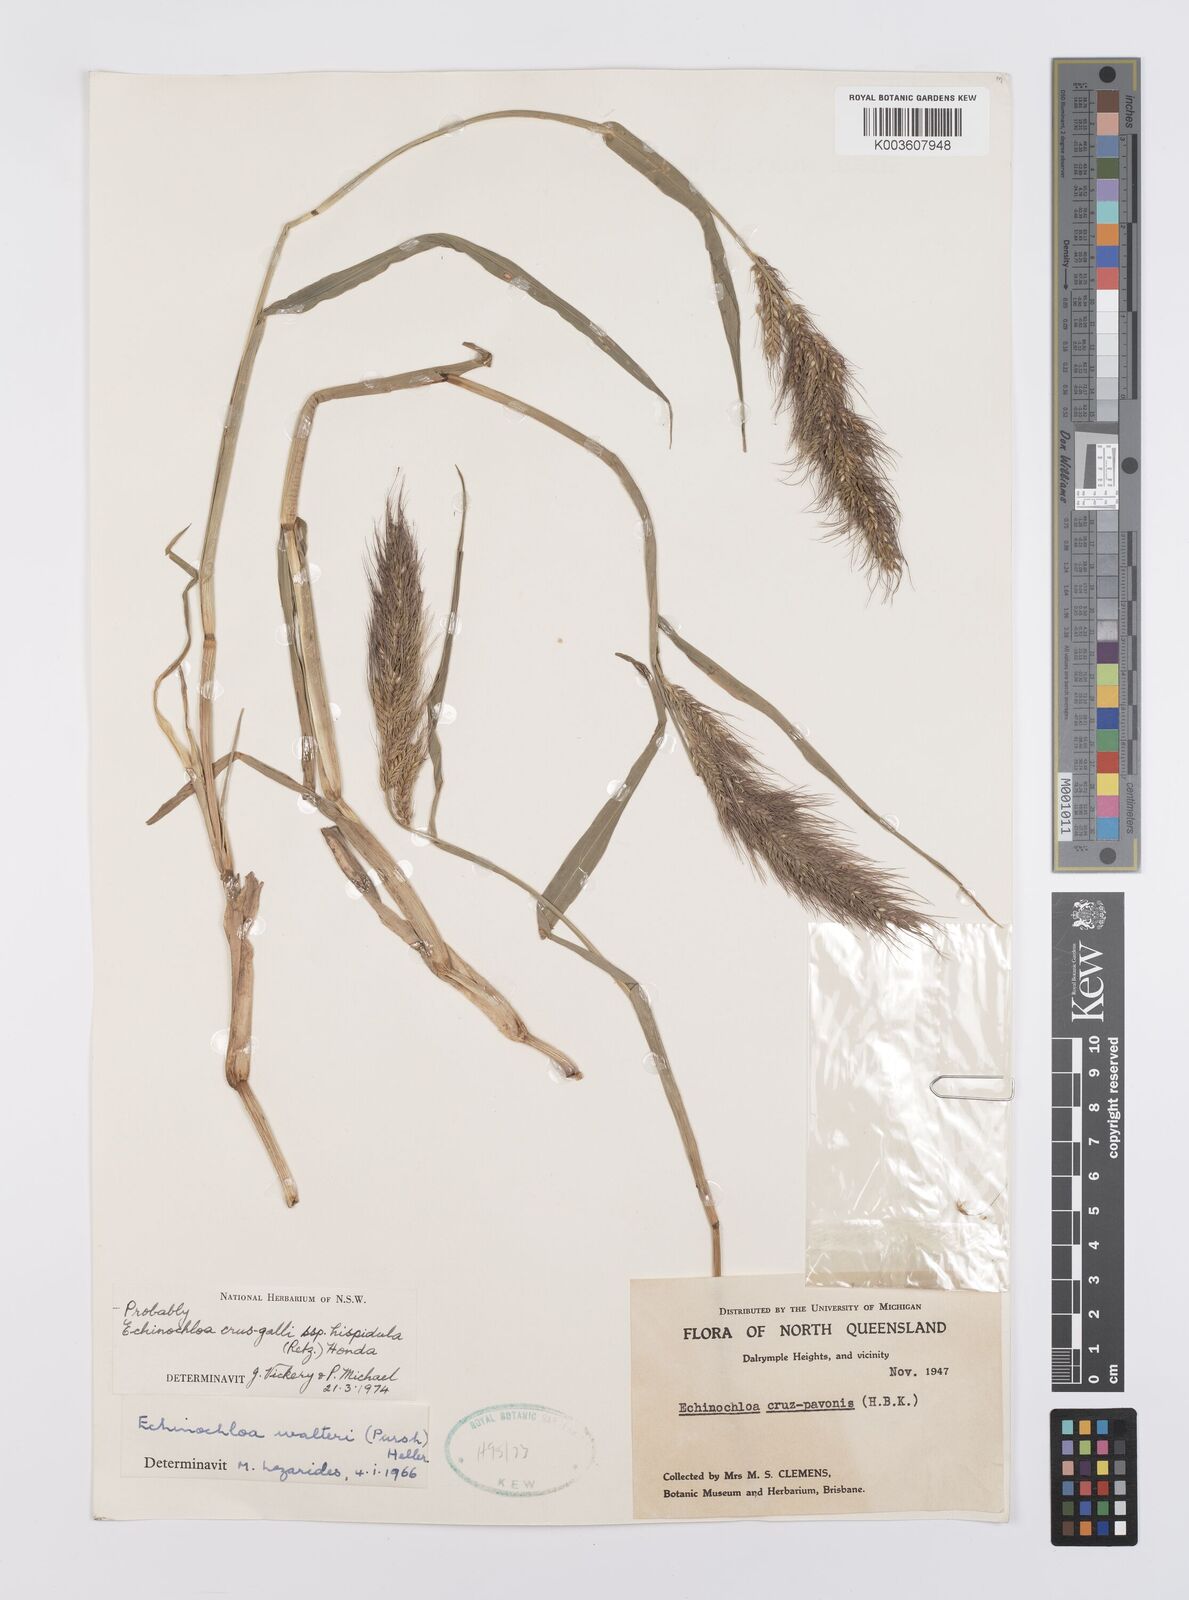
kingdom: Plantae
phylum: Tracheophyta
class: Liliopsida
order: Poales
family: Poaceae
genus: Echinochloa
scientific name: Echinochloa crus-galli
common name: Cockspur
